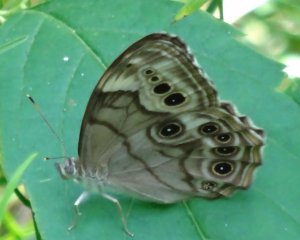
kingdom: Animalia
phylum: Arthropoda
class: Insecta
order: Lepidoptera
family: Nymphalidae
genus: Lethe
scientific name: Lethe anthedon
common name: Northern Pearly-Eye
